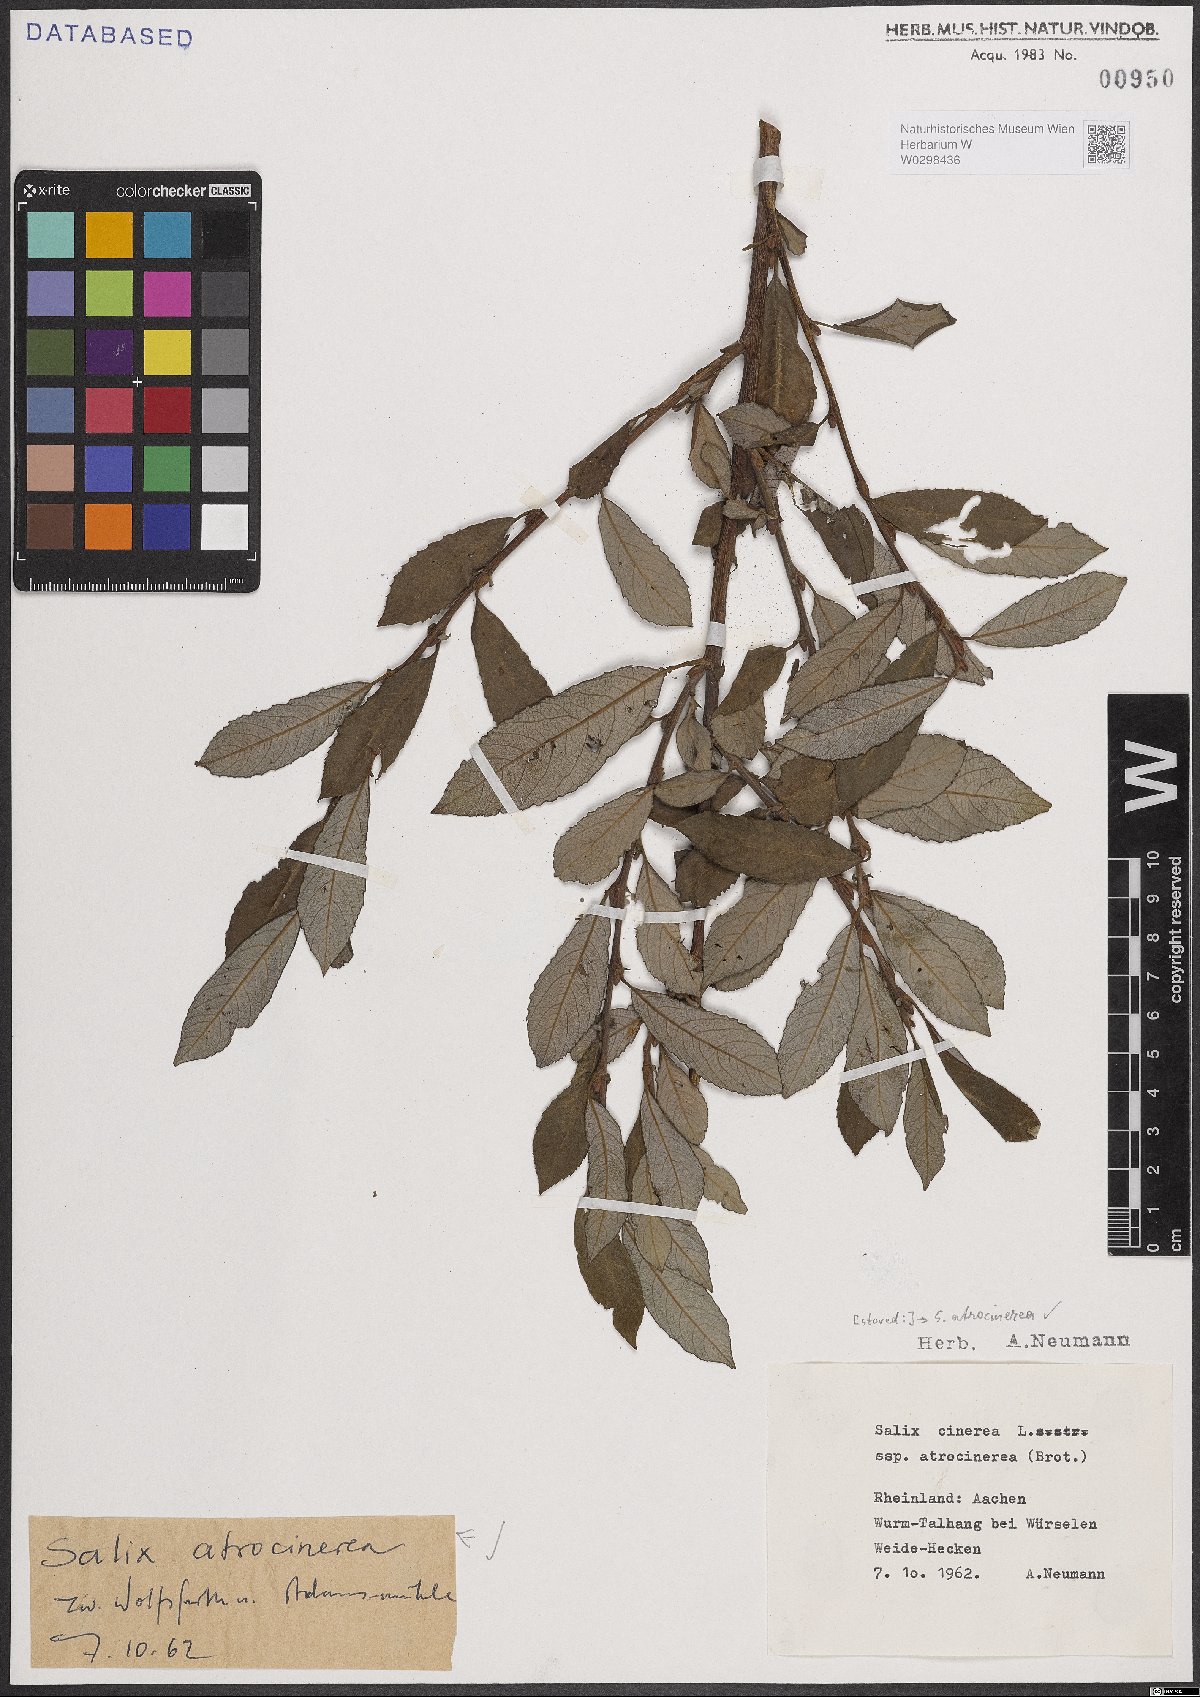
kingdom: Plantae
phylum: Tracheophyta
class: Magnoliopsida
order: Malpighiales
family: Salicaceae
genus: Salix
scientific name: Salix atrocinerea
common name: Rusty willow
